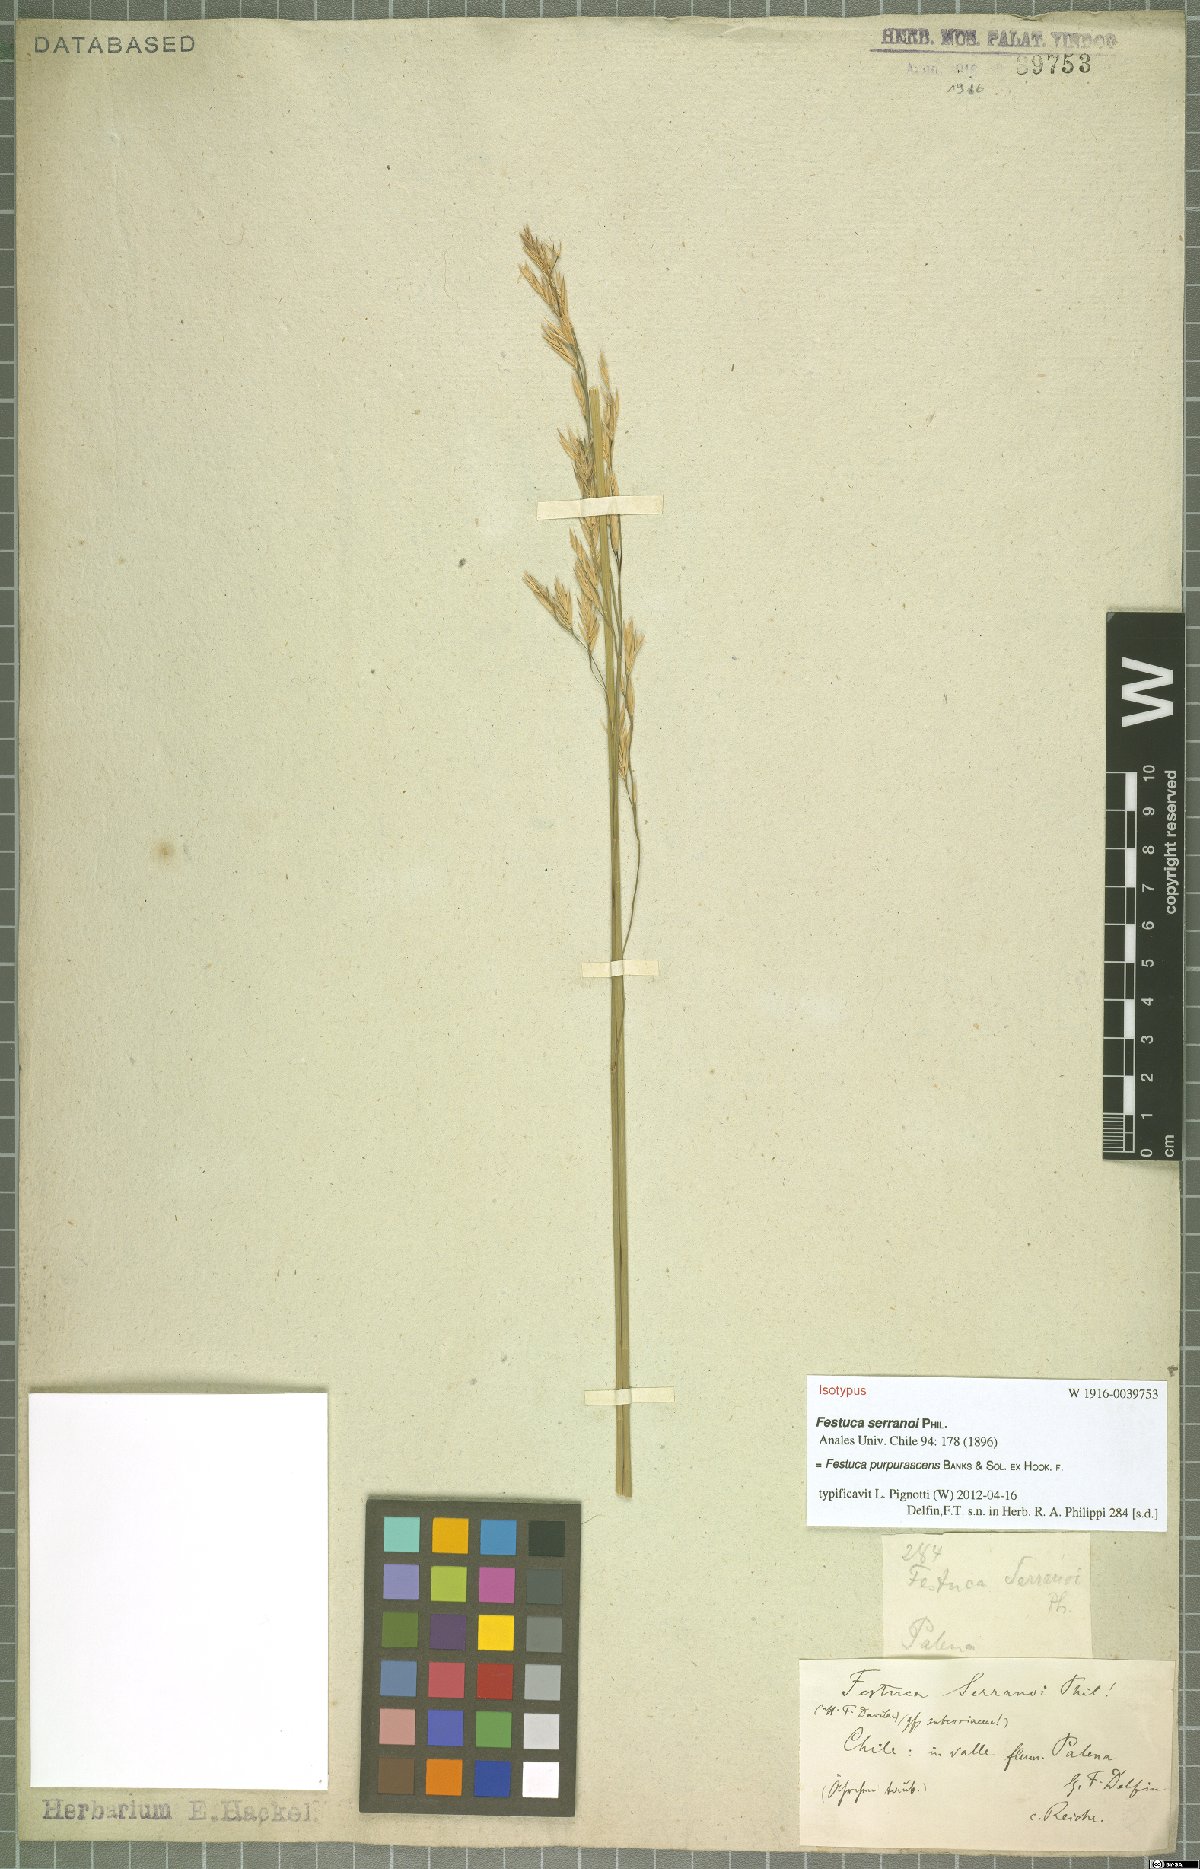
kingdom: Plantae
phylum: Tracheophyta
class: Liliopsida
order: Poales
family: Poaceae
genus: Festuca
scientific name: Festuca purpurascens
